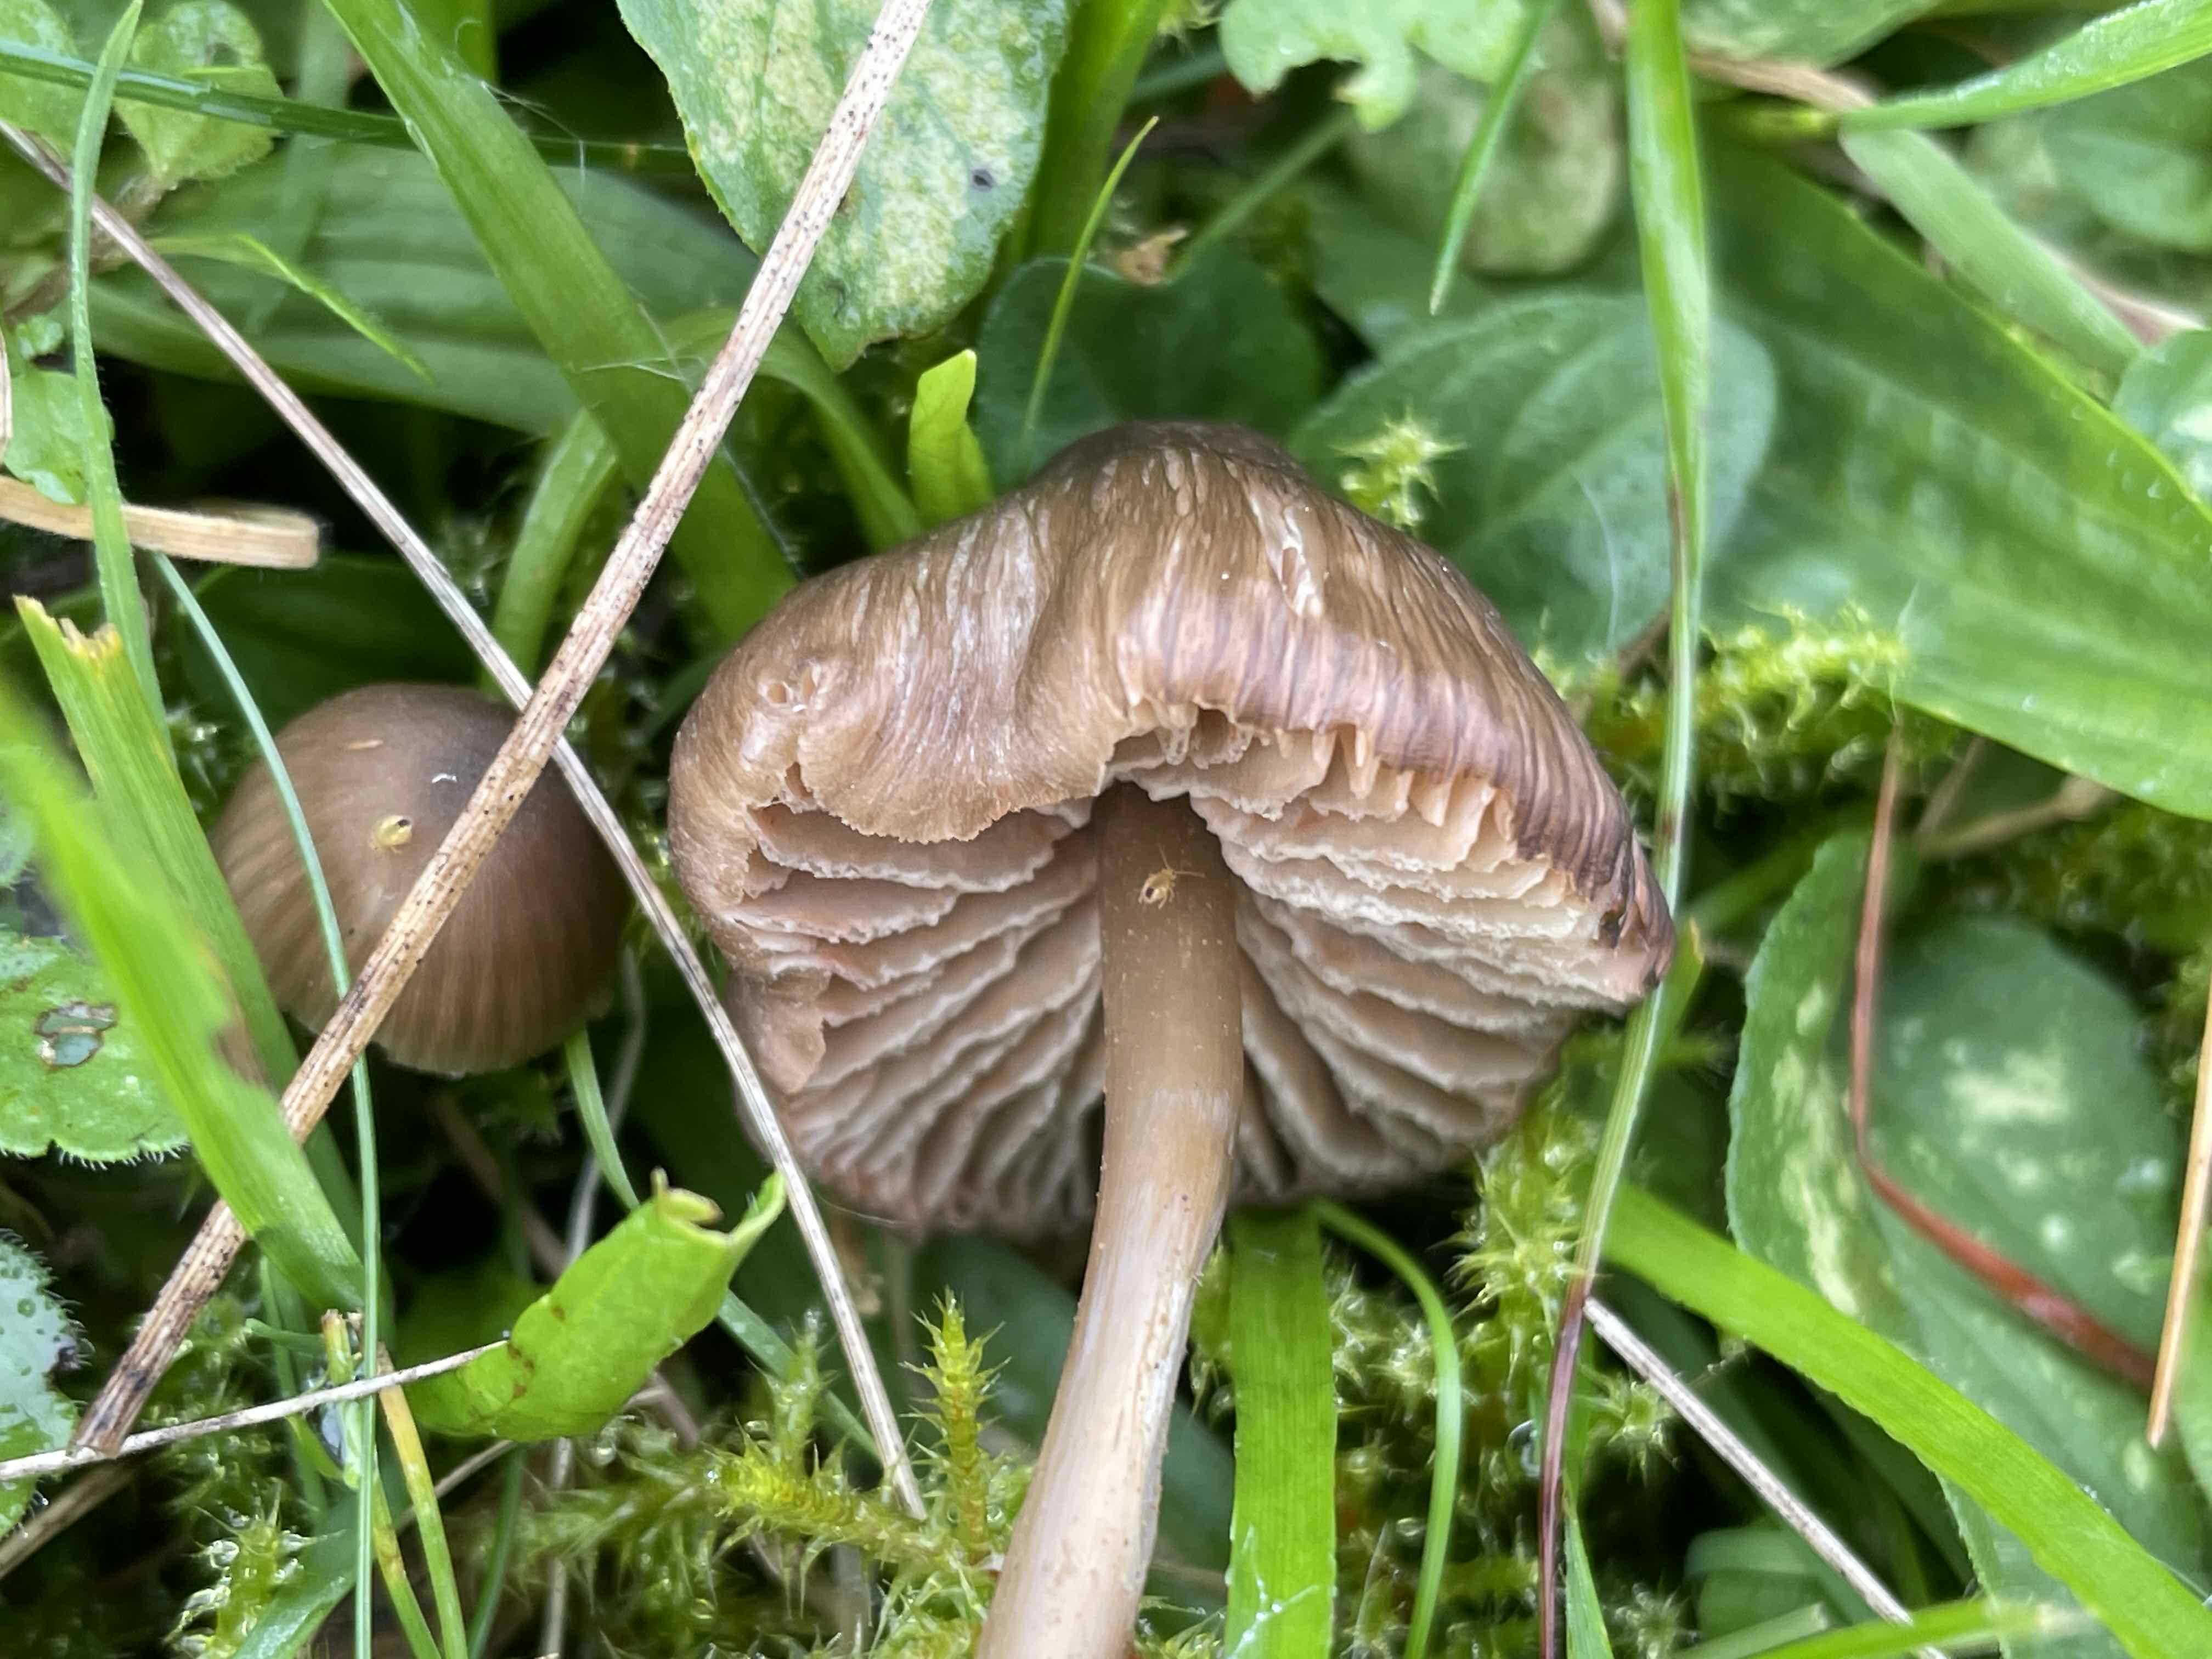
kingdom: Fungi
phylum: Basidiomycota
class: Agaricomycetes
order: Agaricales
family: Entolomataceae
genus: Entoloma
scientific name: Entoloma
